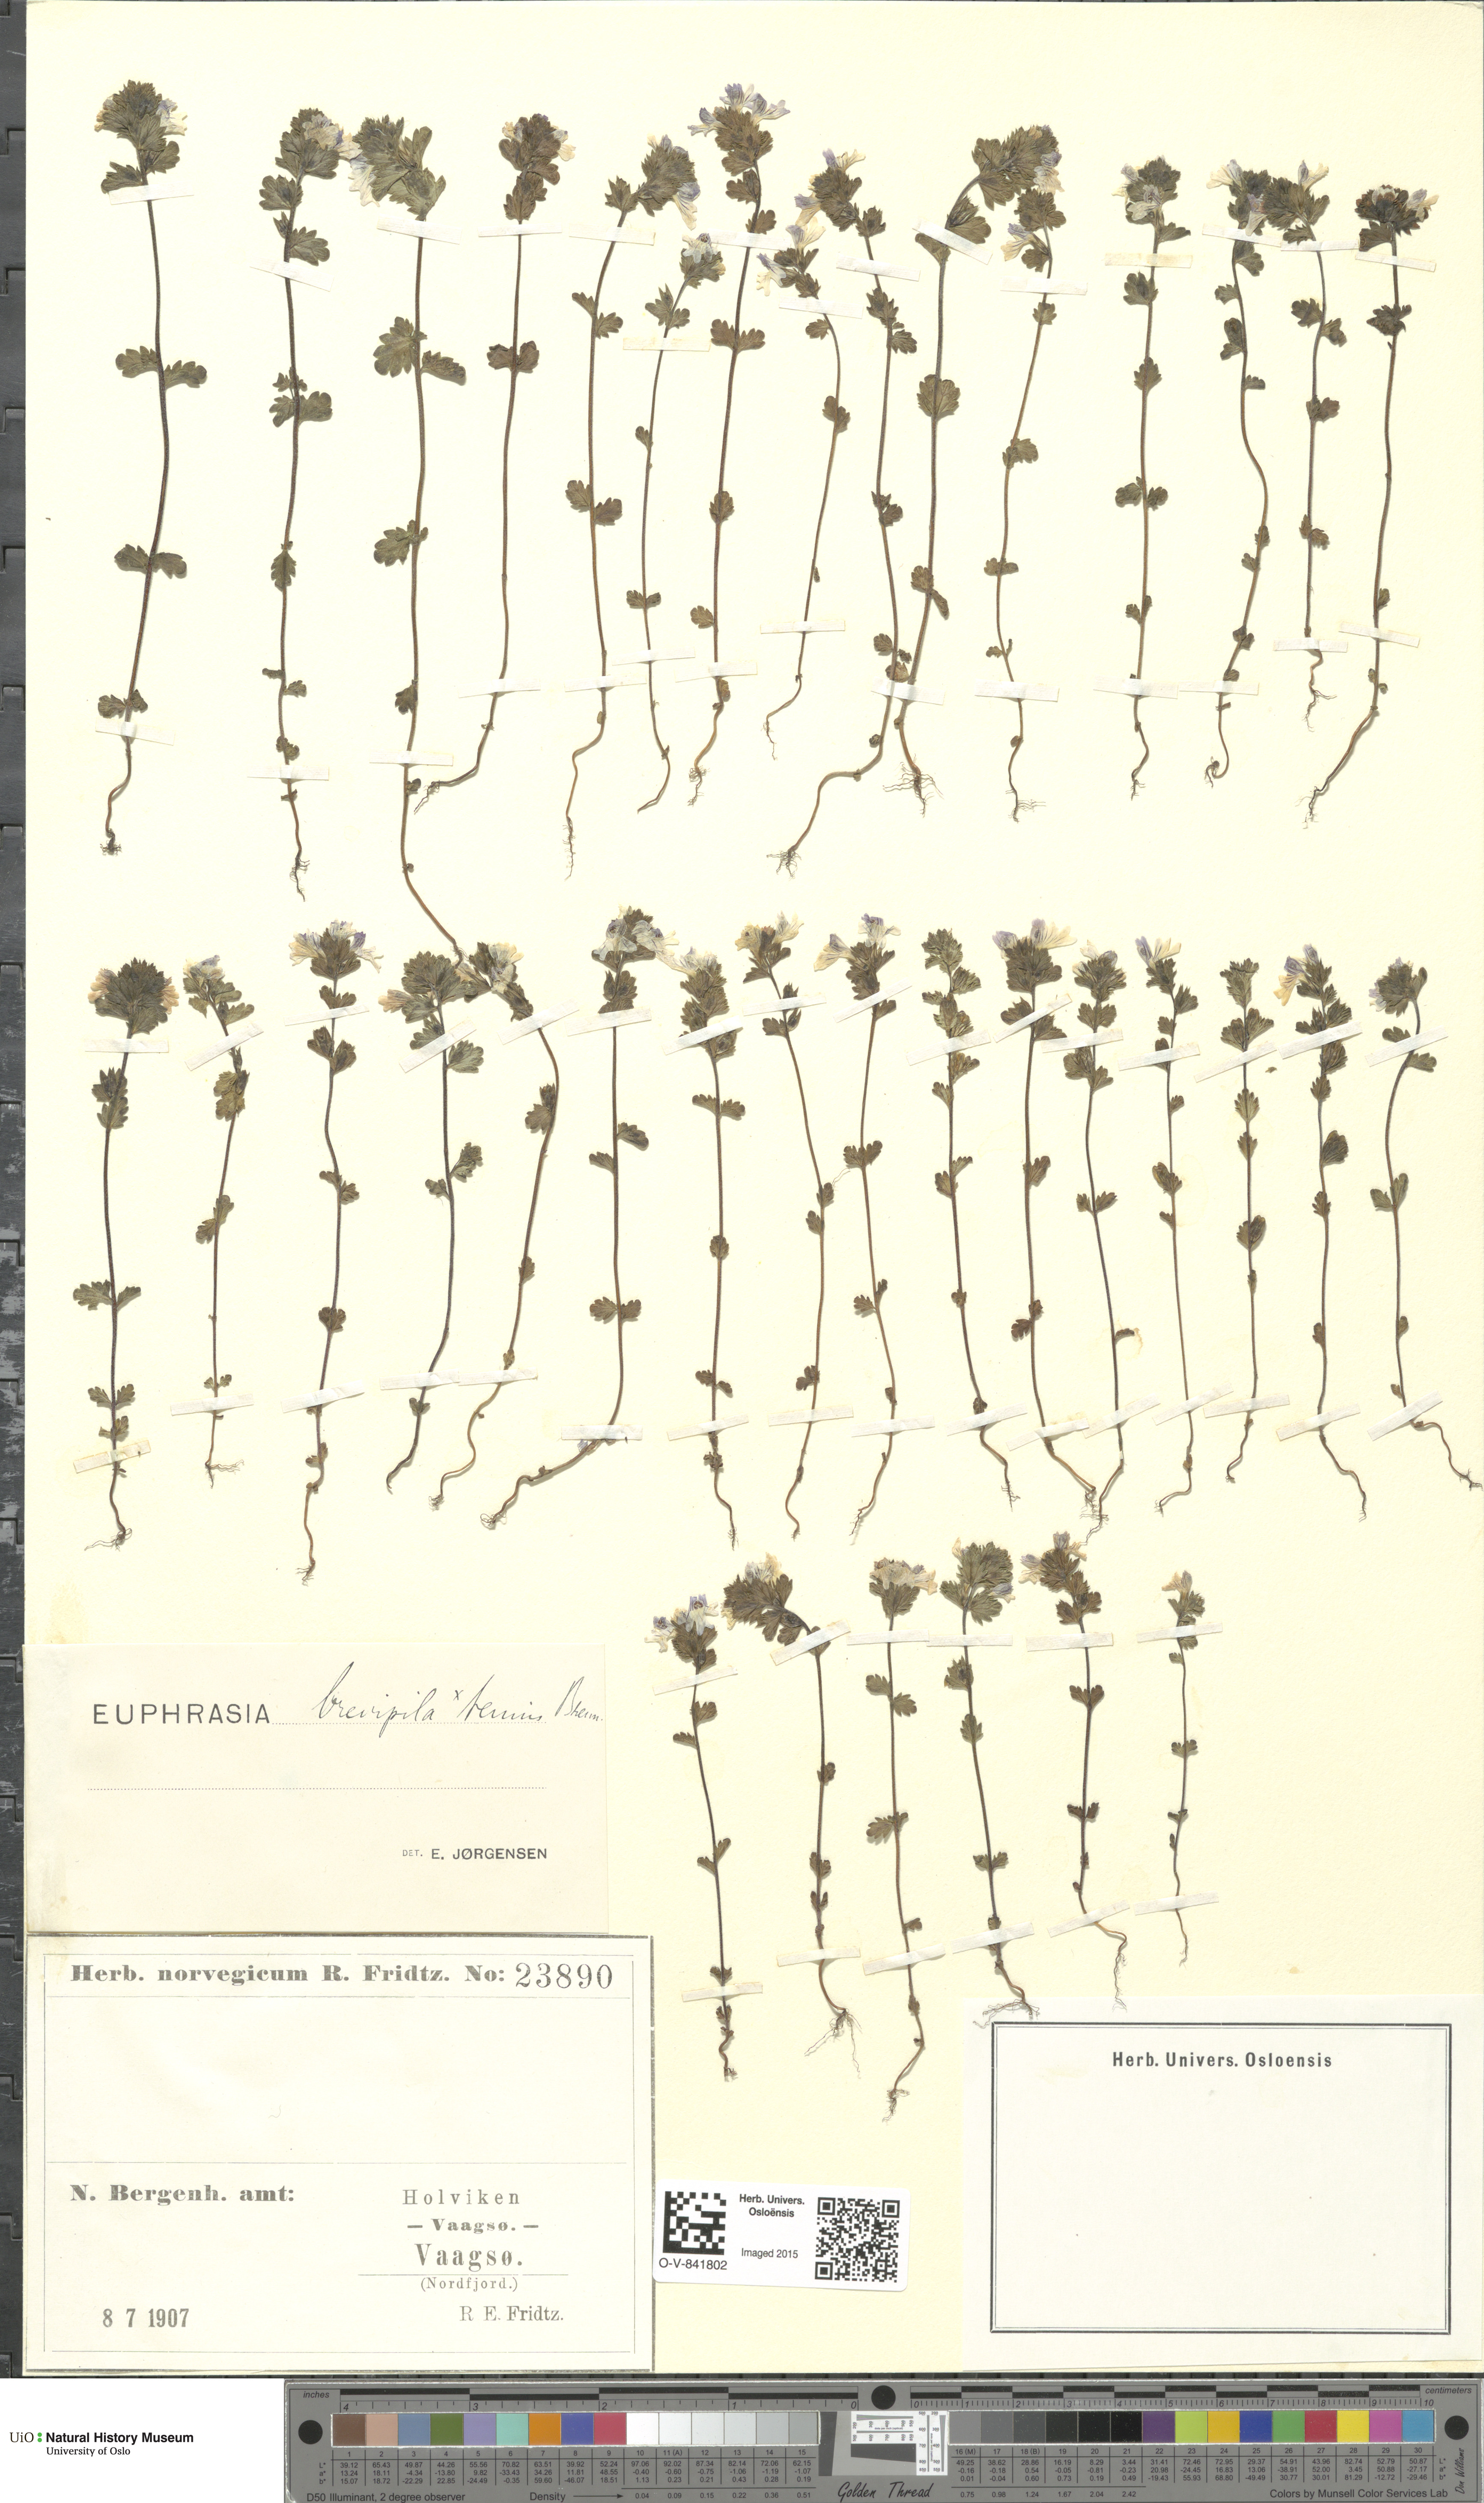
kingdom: Plantae
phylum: Tracheophyta
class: Magnoliopsida
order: Lamiales
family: Orobanchaceae
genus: Euphrasia
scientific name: Euphrasia vernalis
